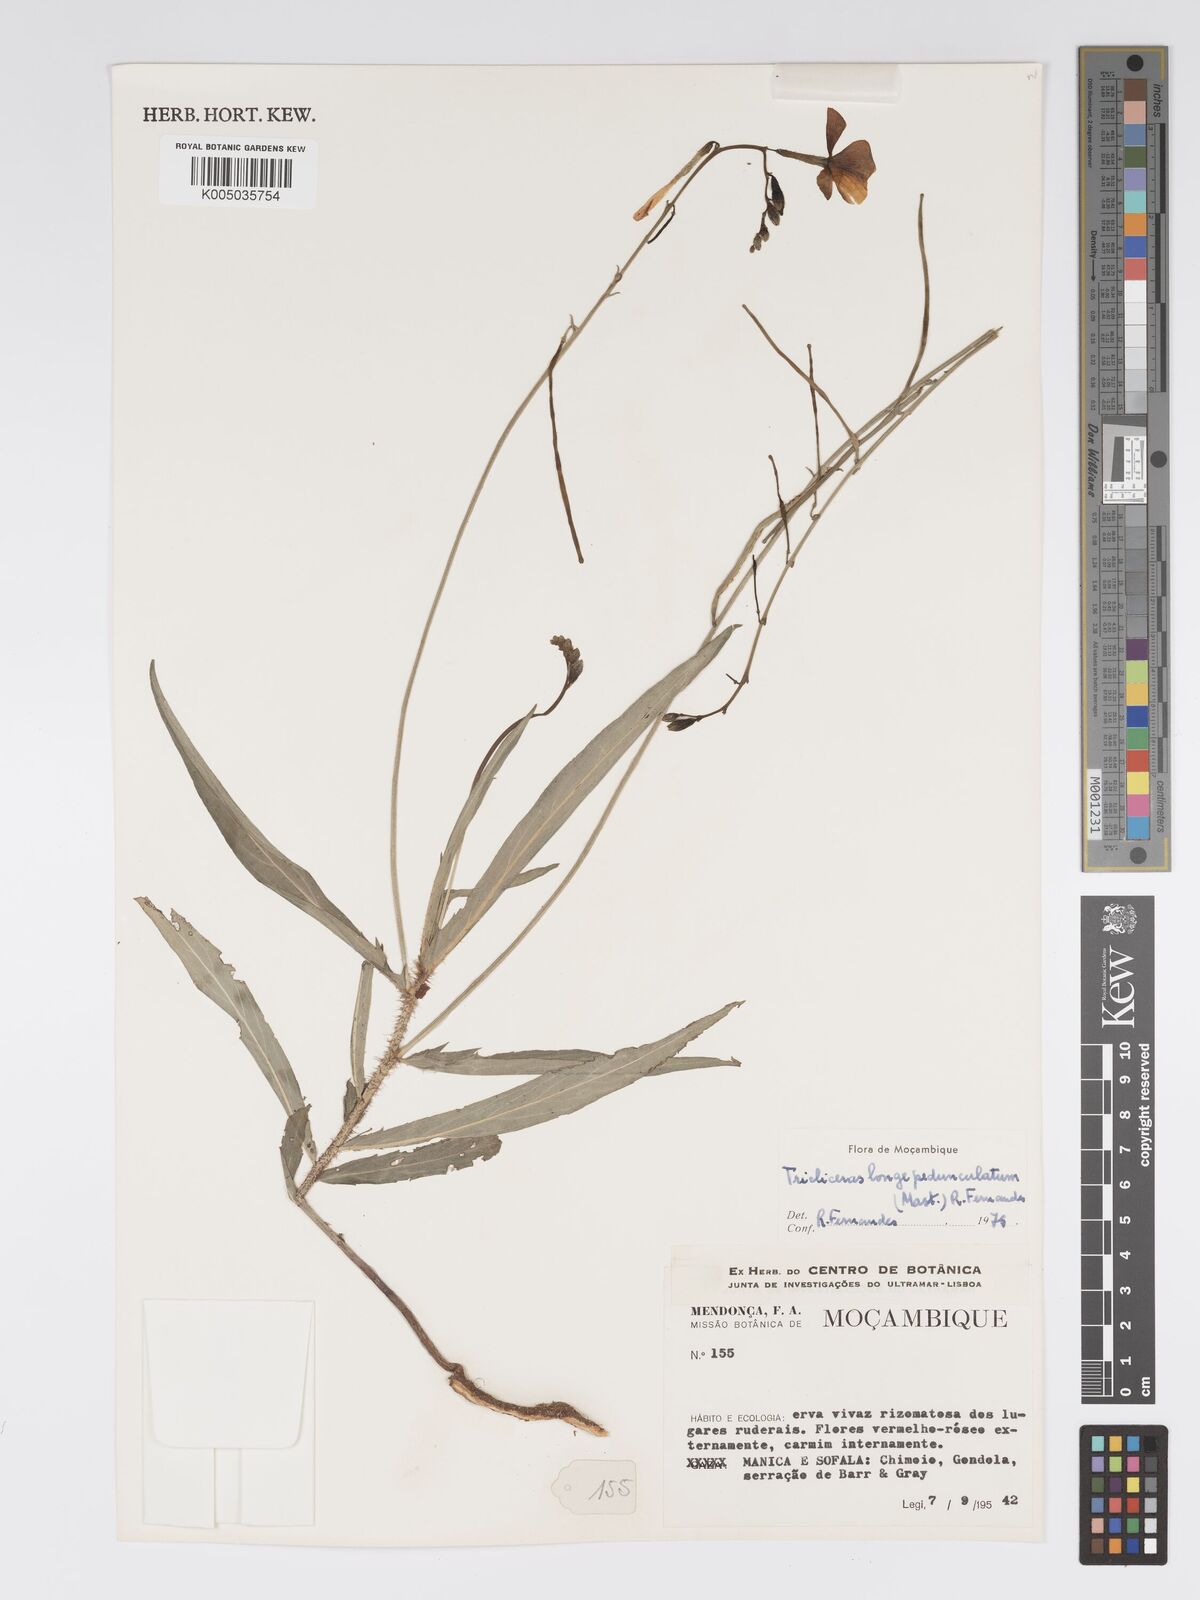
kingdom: Plantae
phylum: Tracheophyta
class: Magnoliopsida
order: Malpighiales
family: Turneraceae
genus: Tricliceras
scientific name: Tricliceras longepedunculatum
